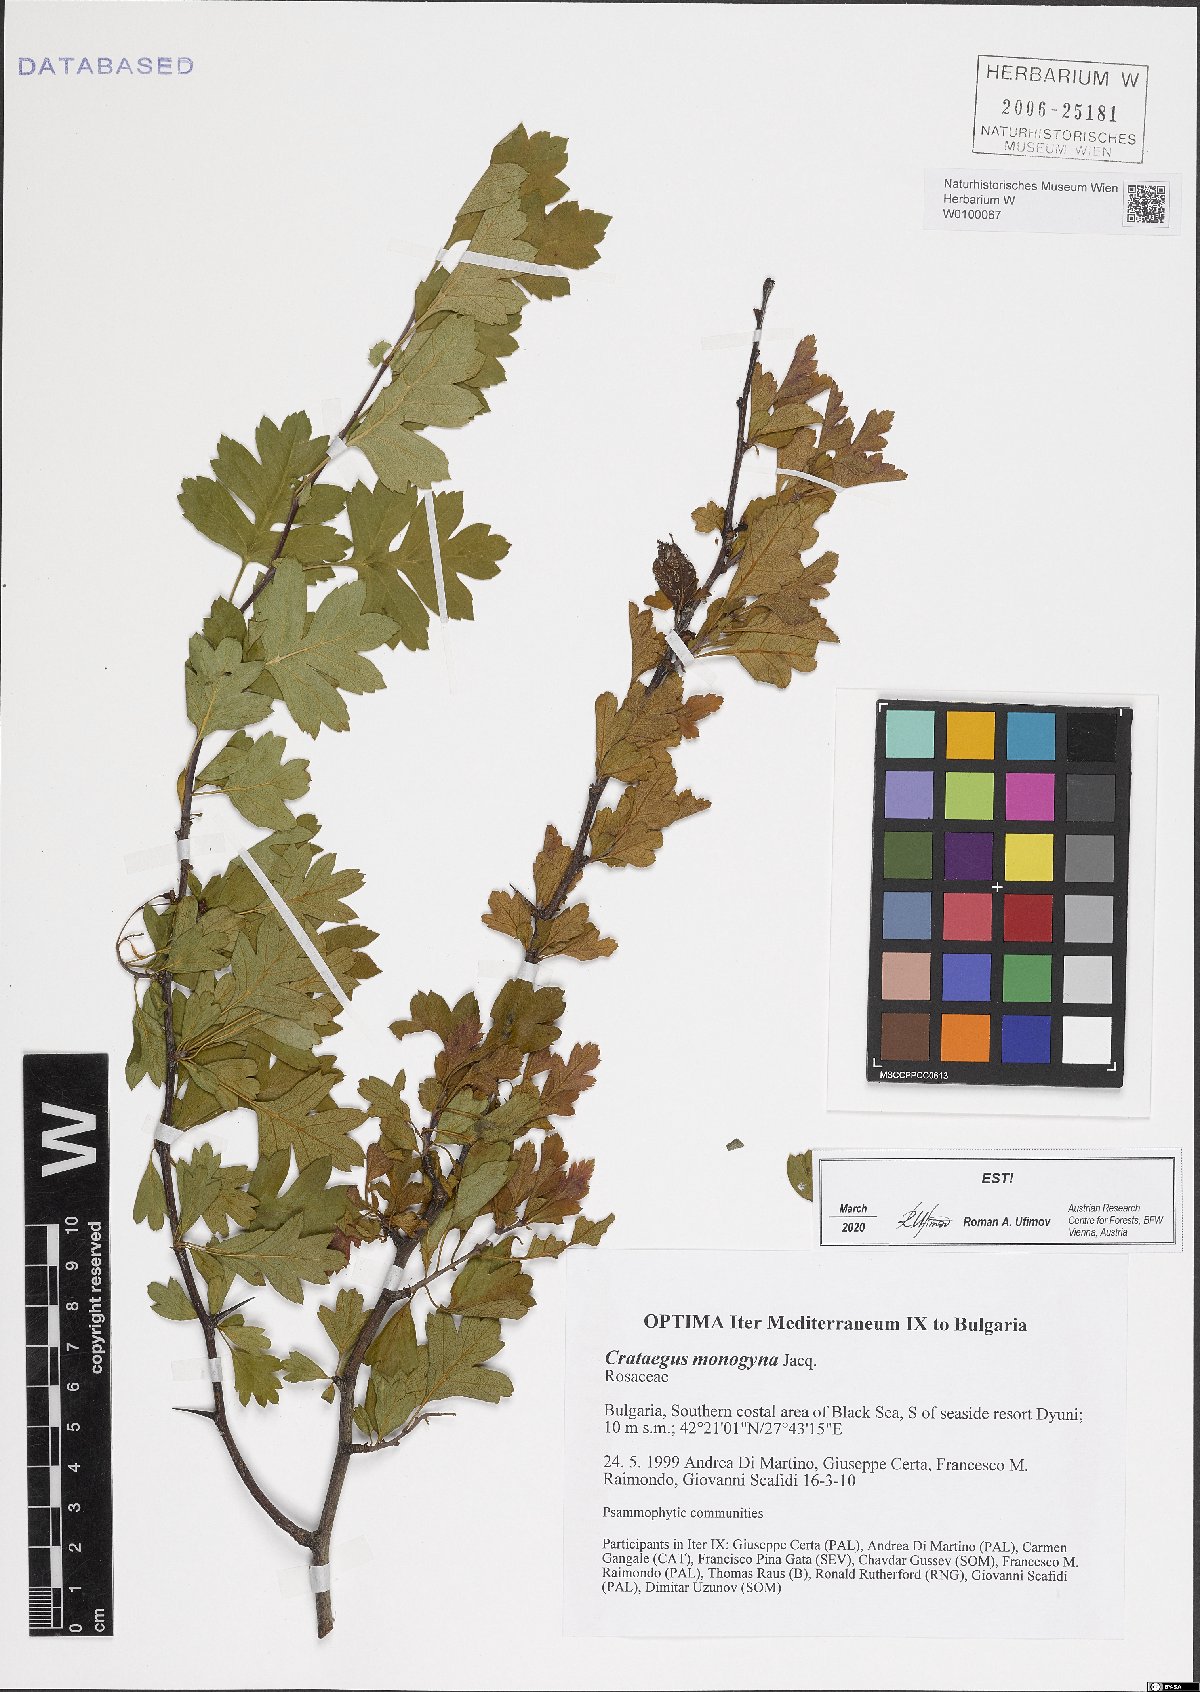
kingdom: Plantae
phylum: Tracheophyta
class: Magnoliopsida
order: Rosales
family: Rosaceae
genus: Crataegus
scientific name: Crataegus monogyna
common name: Hawthorn
